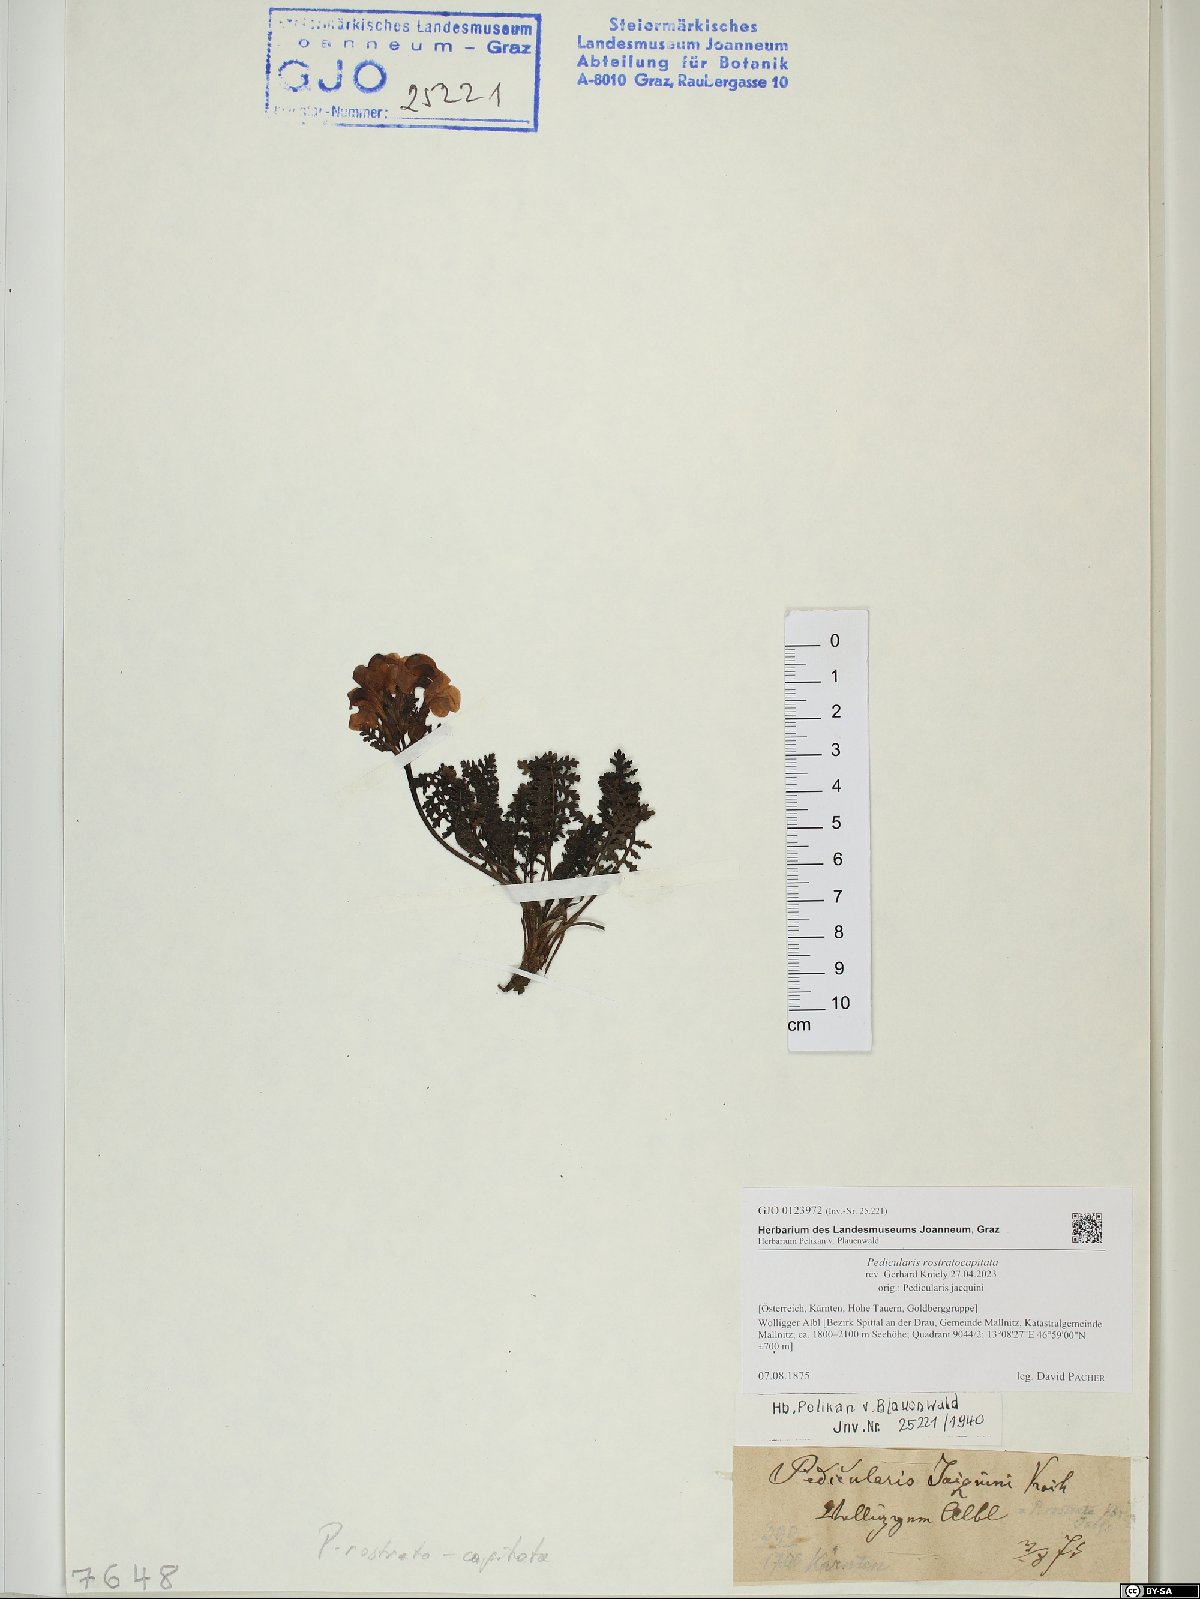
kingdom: Plantae
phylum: Tracheophyta
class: Magnoliopsida
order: Lamiales
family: Orobanchaceae
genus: Pedicularis
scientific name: Pedicularis rostratocapitata
